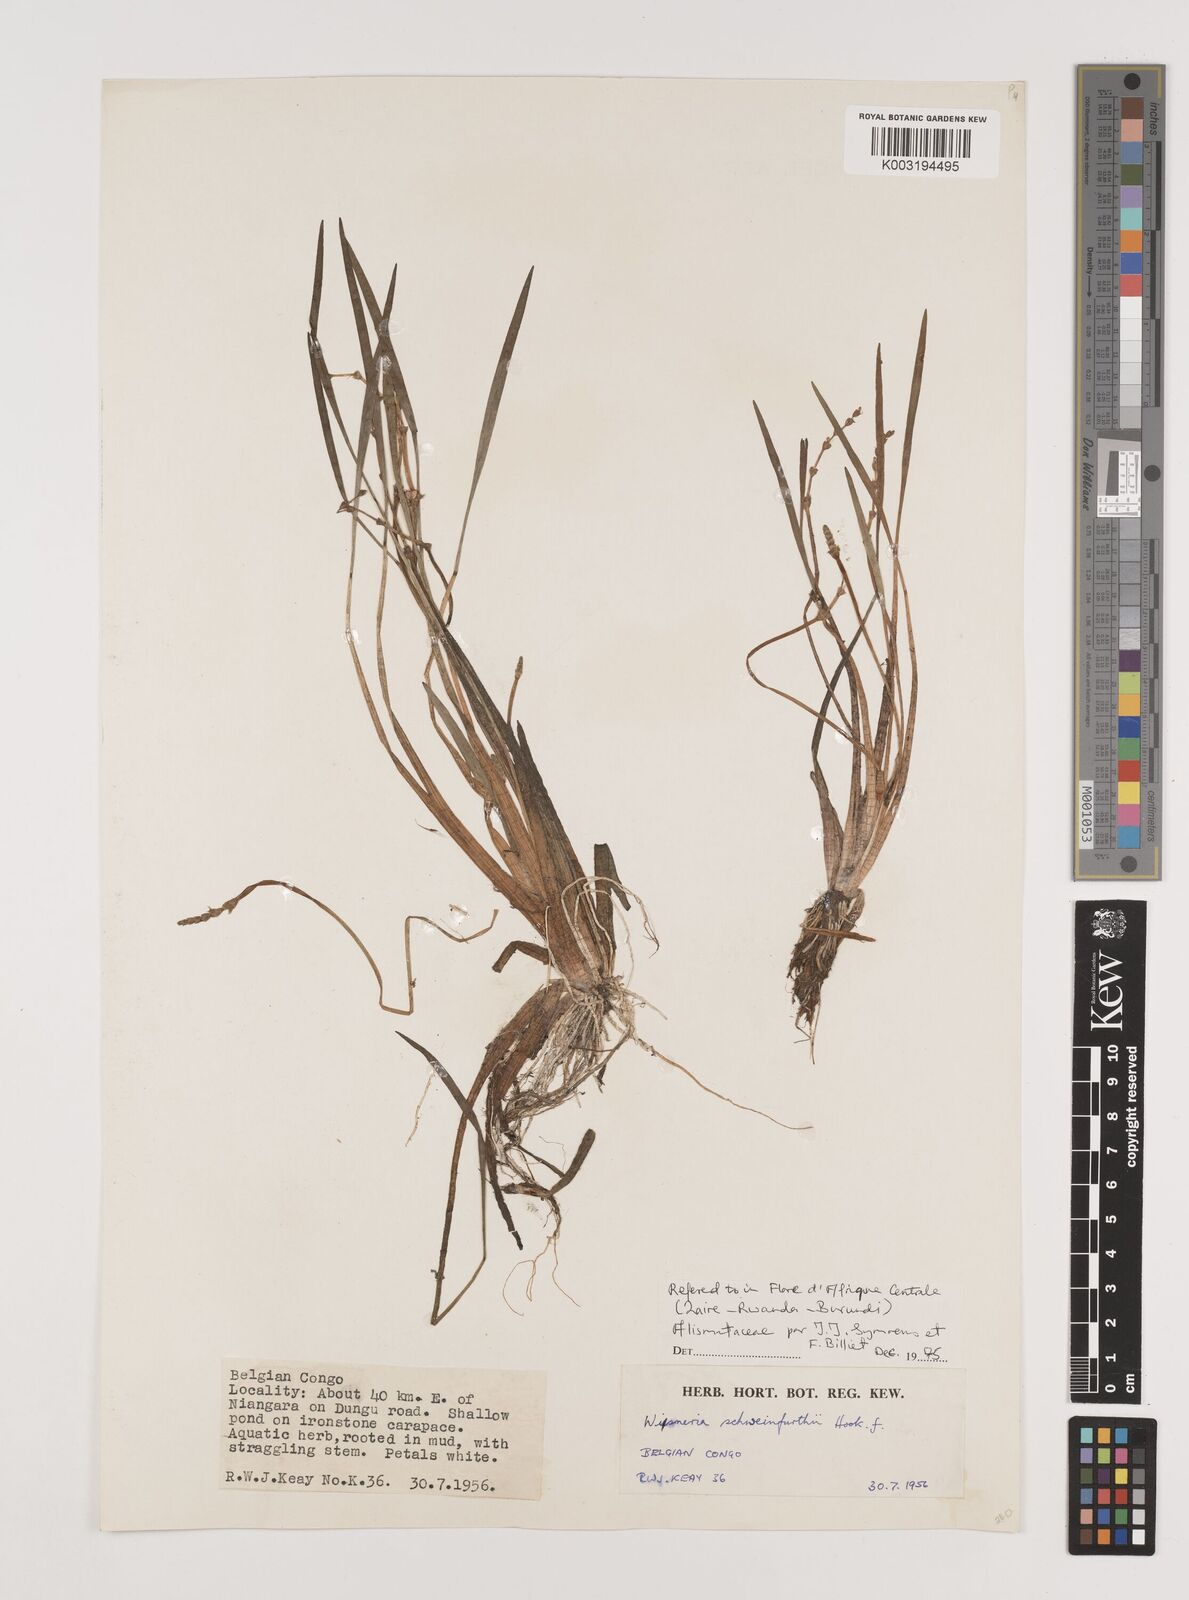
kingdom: Plantae
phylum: Tracheophyta
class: Liliopsida
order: Alismatales
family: Alismataceae
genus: Wiesneria
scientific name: Wiesneria schweinfurthii
